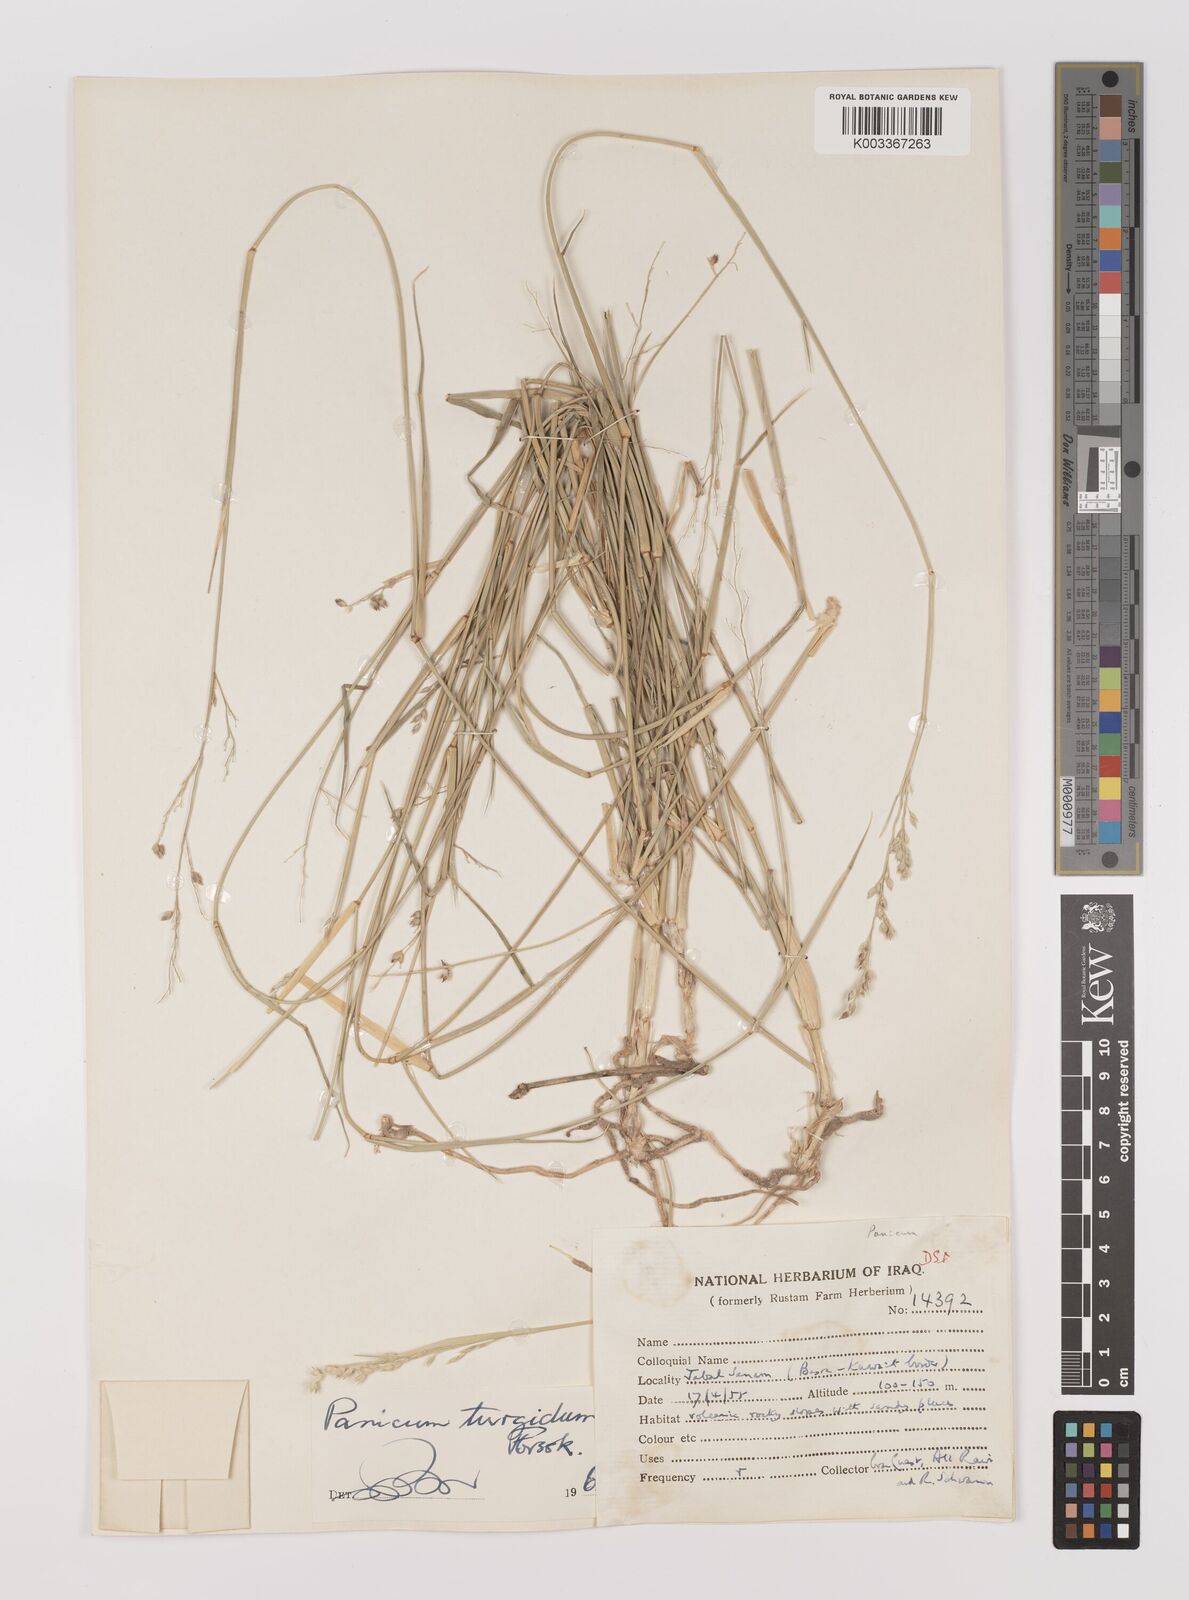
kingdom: Plantae
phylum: Tracheophyta
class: Liliopsida
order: Poales
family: Poaceae
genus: Panicum
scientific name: Panicum turgidum
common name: Desert grass
